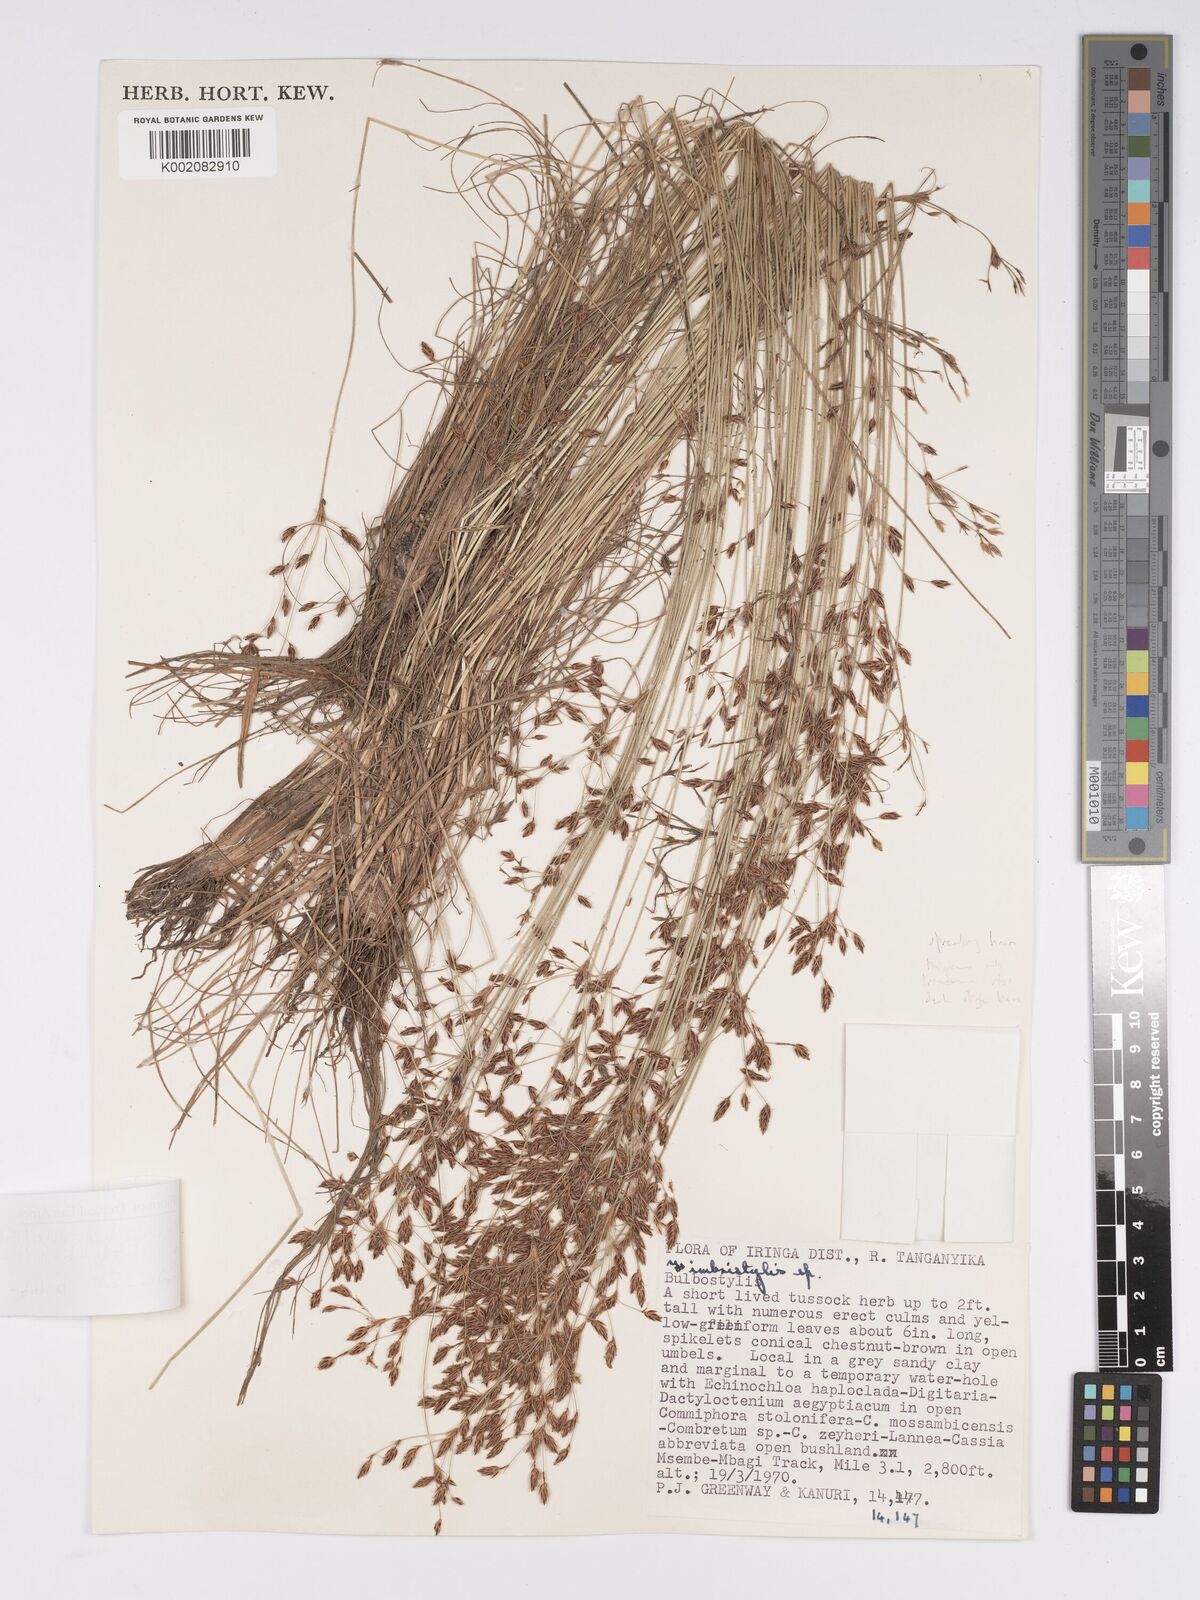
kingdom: Plantae
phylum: Tracheophyta
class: Liliopsida
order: Poales
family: Cyperaceae
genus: Bulbostylis
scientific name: Bulbostylis hispidula
